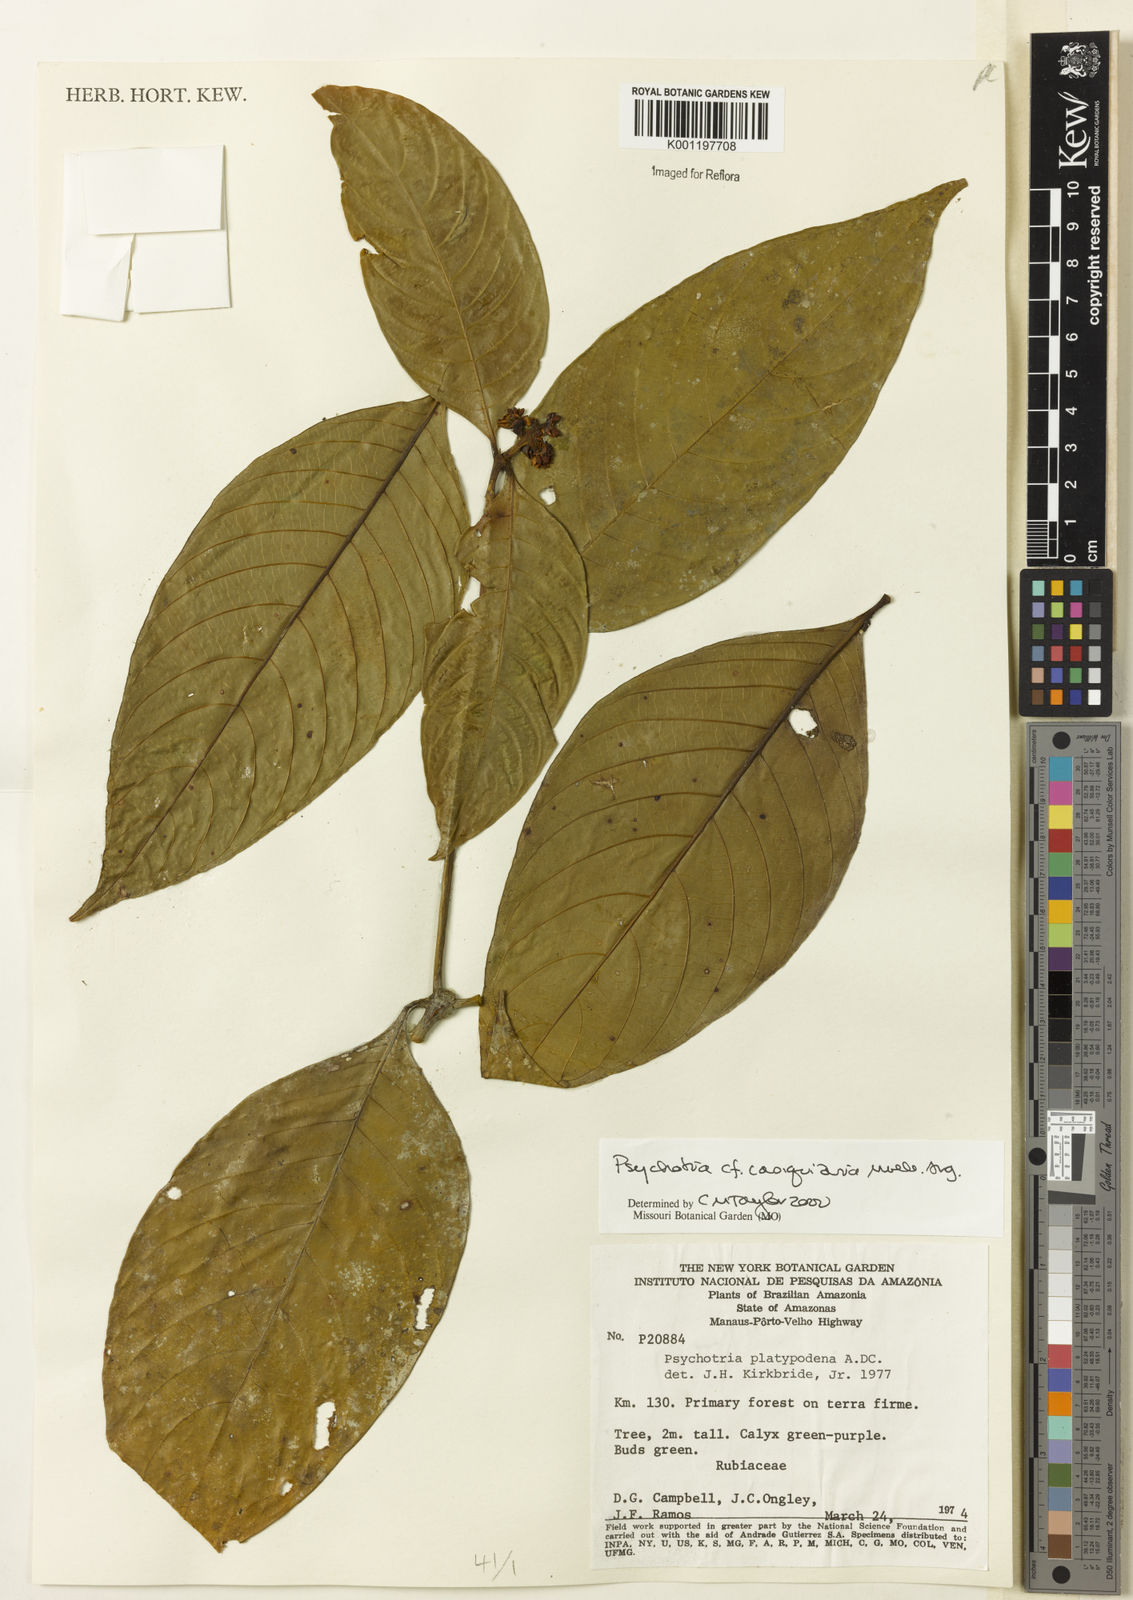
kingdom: Plantae
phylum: Tracheophyta
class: Magnoliopsida
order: Gentianales
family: Rubiaceae
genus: Psychotria
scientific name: Psychotria
